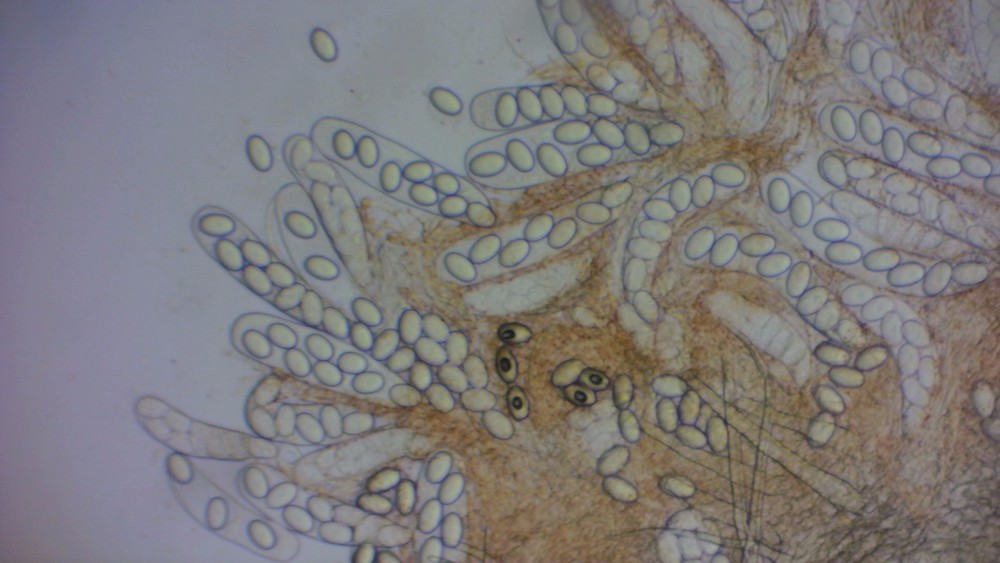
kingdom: Fungi
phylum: Ascomycota
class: Pezizomycetes
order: Pezizales
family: Ascodesmidaceae
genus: Lasiobolus
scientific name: Lasiobolus papillatus
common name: enradet øjebæger
